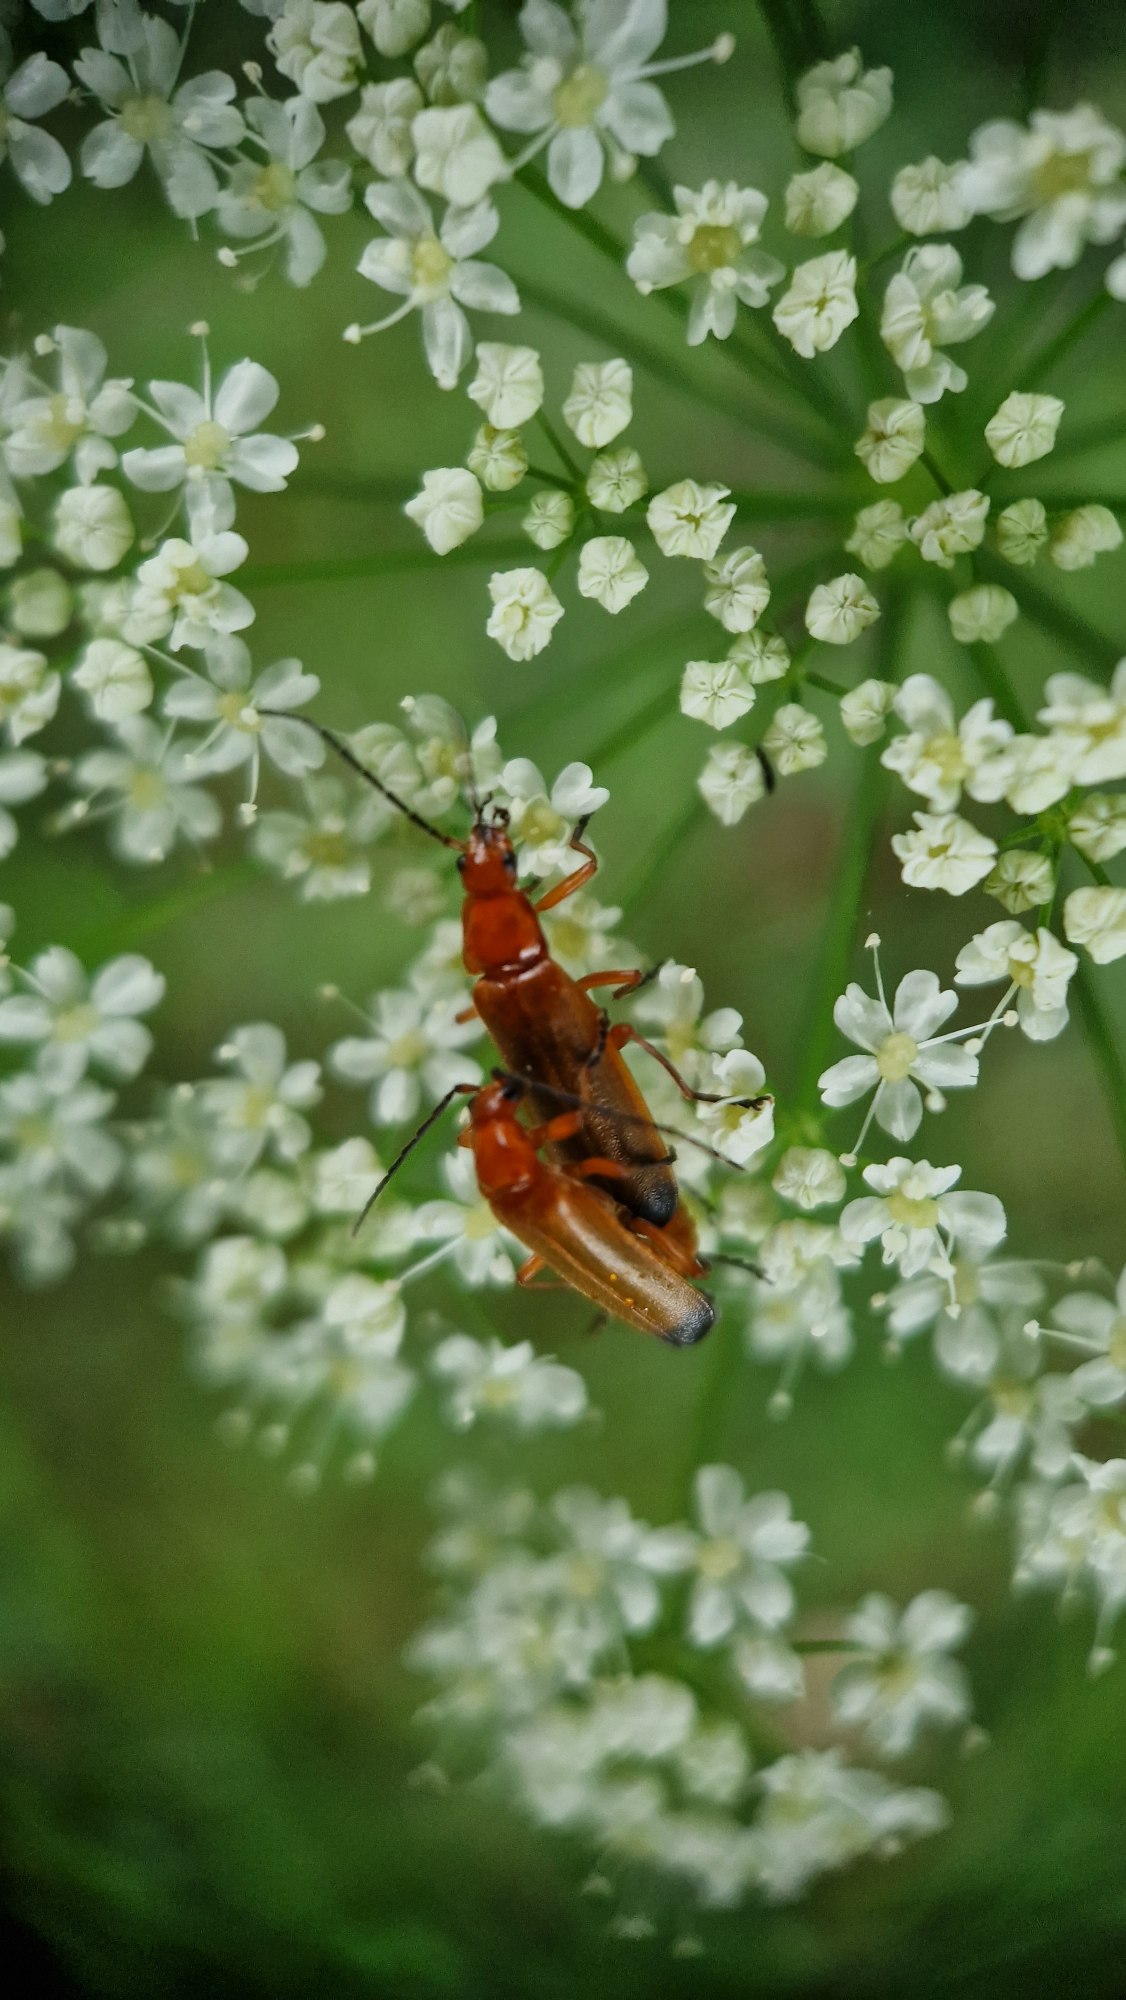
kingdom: Animalia
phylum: Arthropoda
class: Insecta
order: Coleoptera
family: Cantharidae
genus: Rhagonycha
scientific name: Rhagonycha fulva
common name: Præstebille
